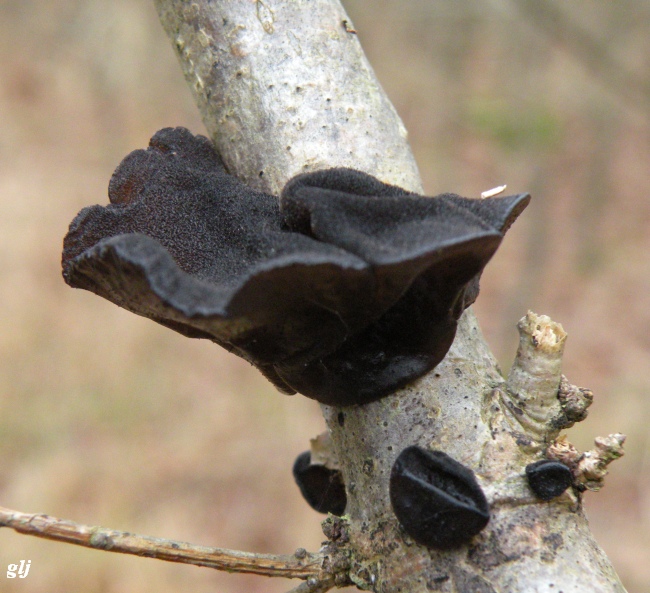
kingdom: Fungi
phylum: Basidiomycota
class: Agaricomycetes
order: Auriculariales
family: Auriculariaceae
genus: Exidia
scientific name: Exidia glandulosa
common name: ege-bævretop
